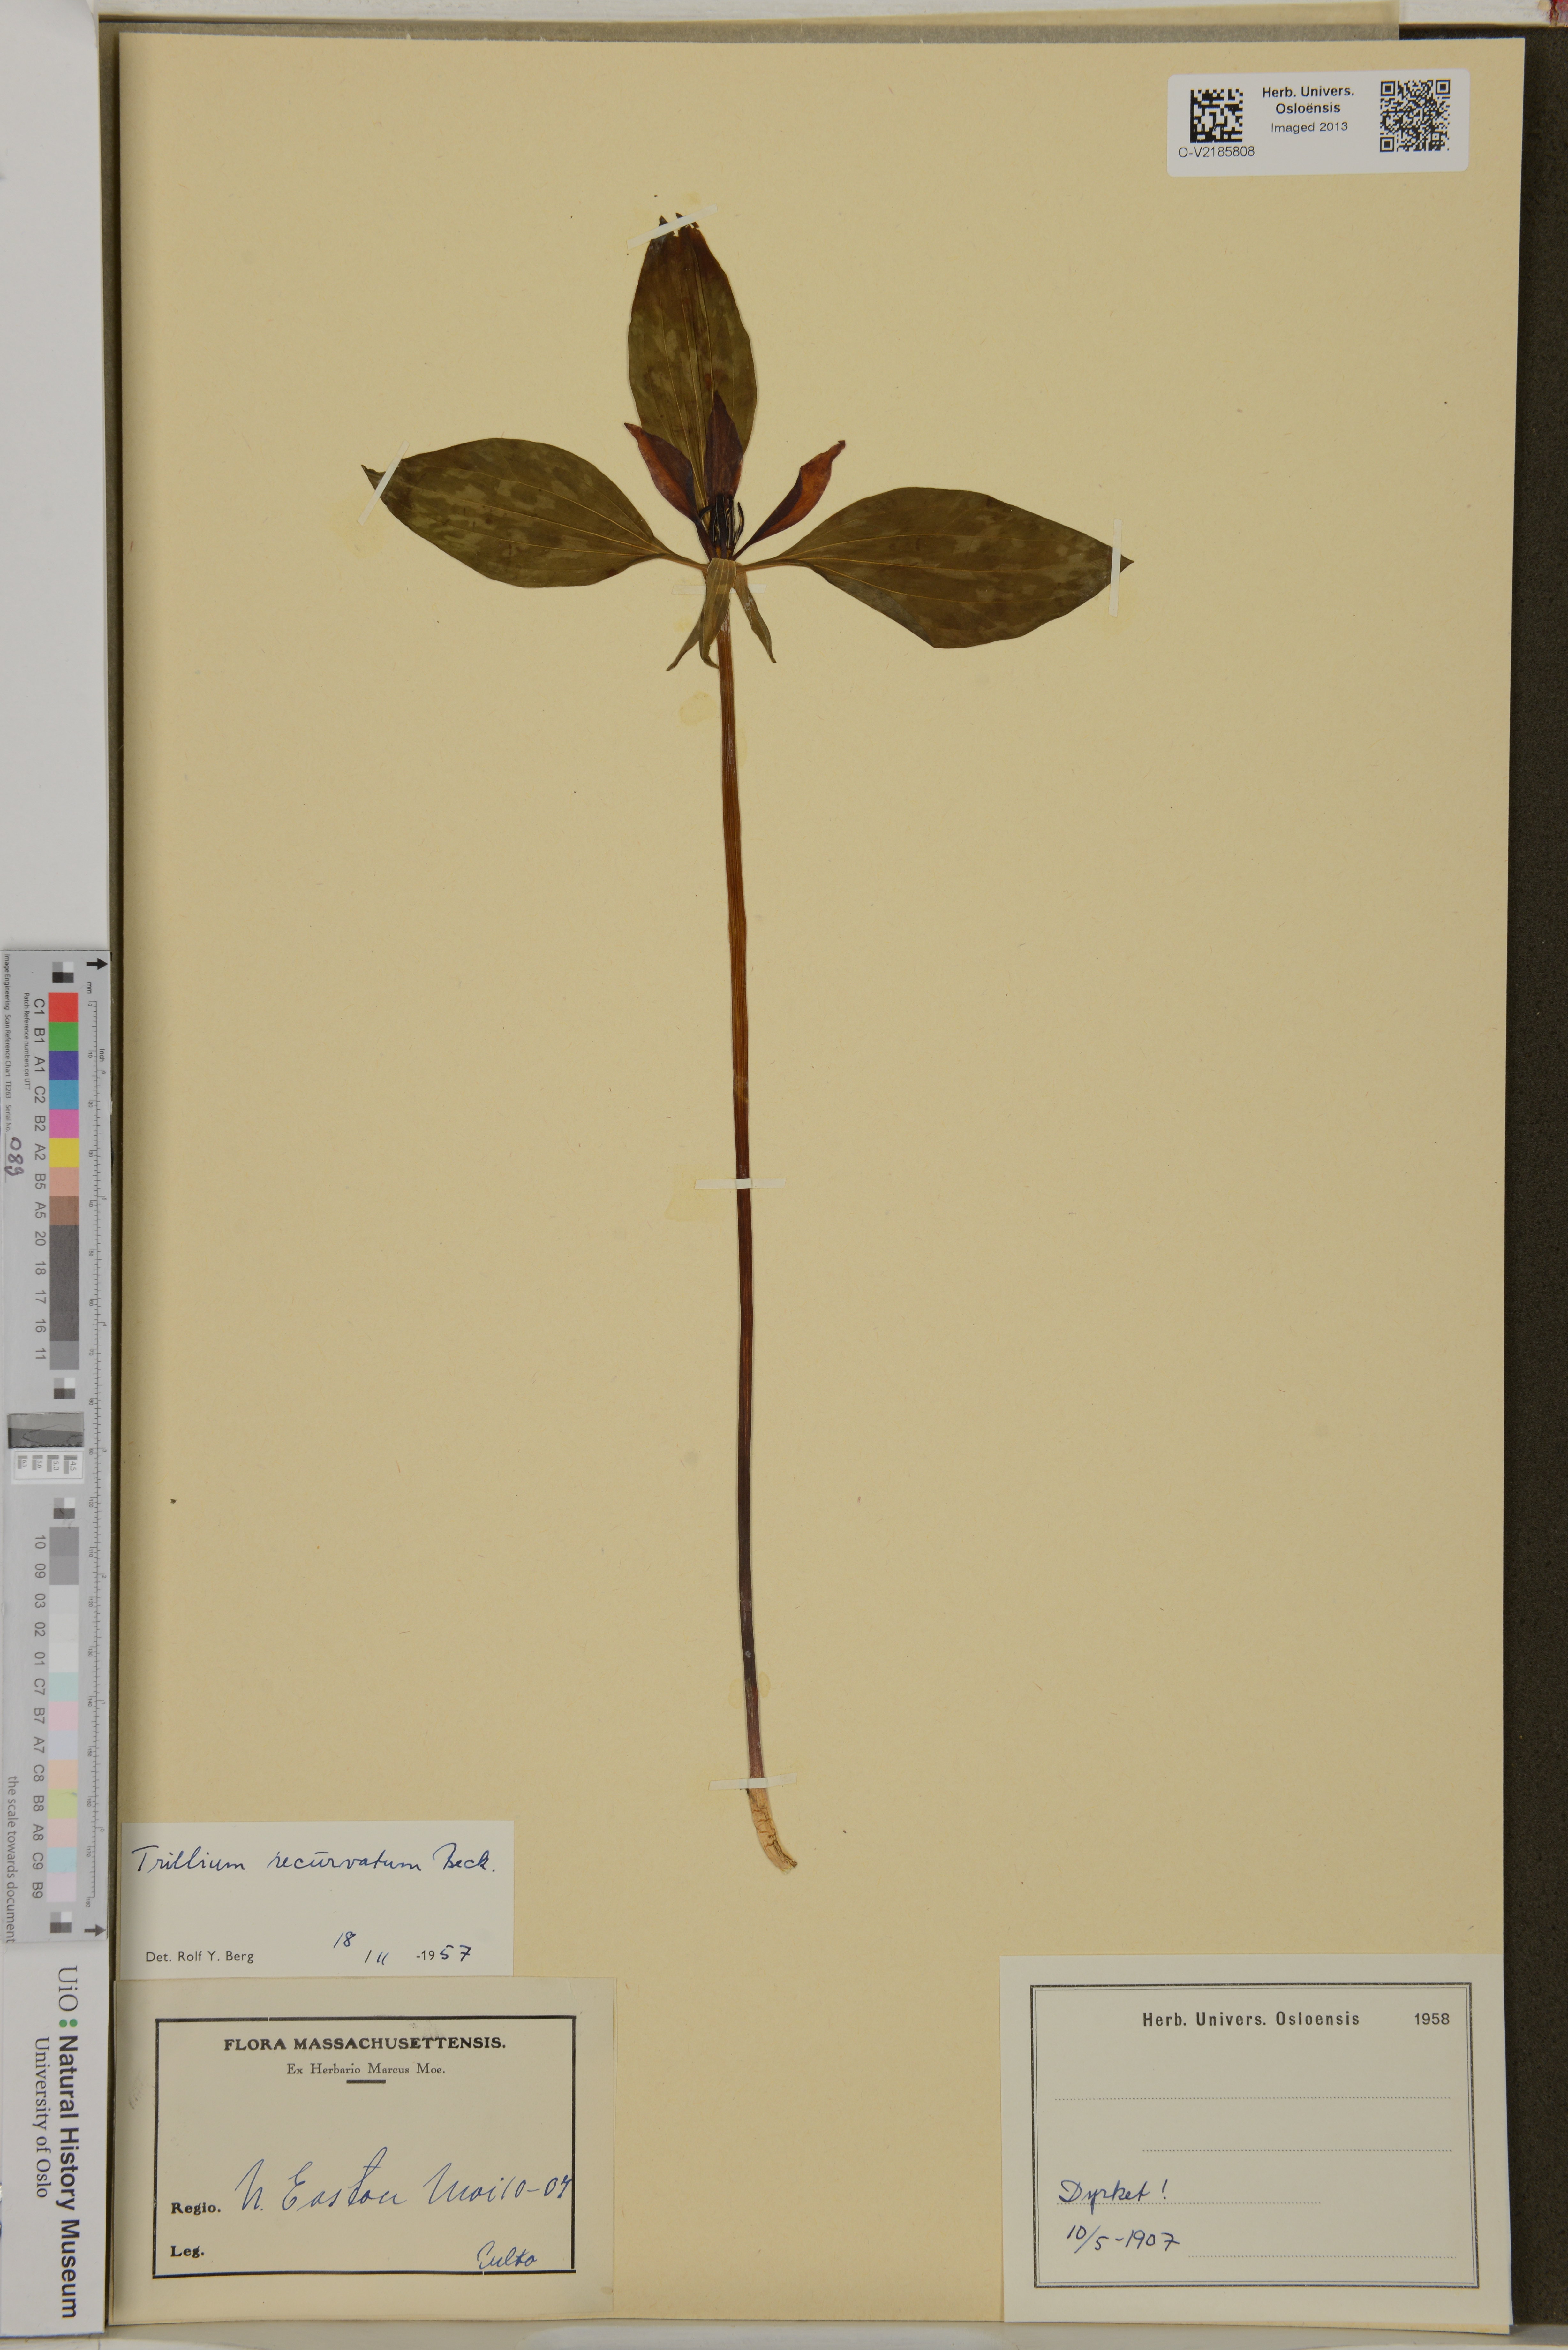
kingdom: Plantae
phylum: Tracheophyta
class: Liliopsida
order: Liliales
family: Melanthiaceae
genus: Trillium
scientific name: Trillium recurvatum
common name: Bloody butcher
